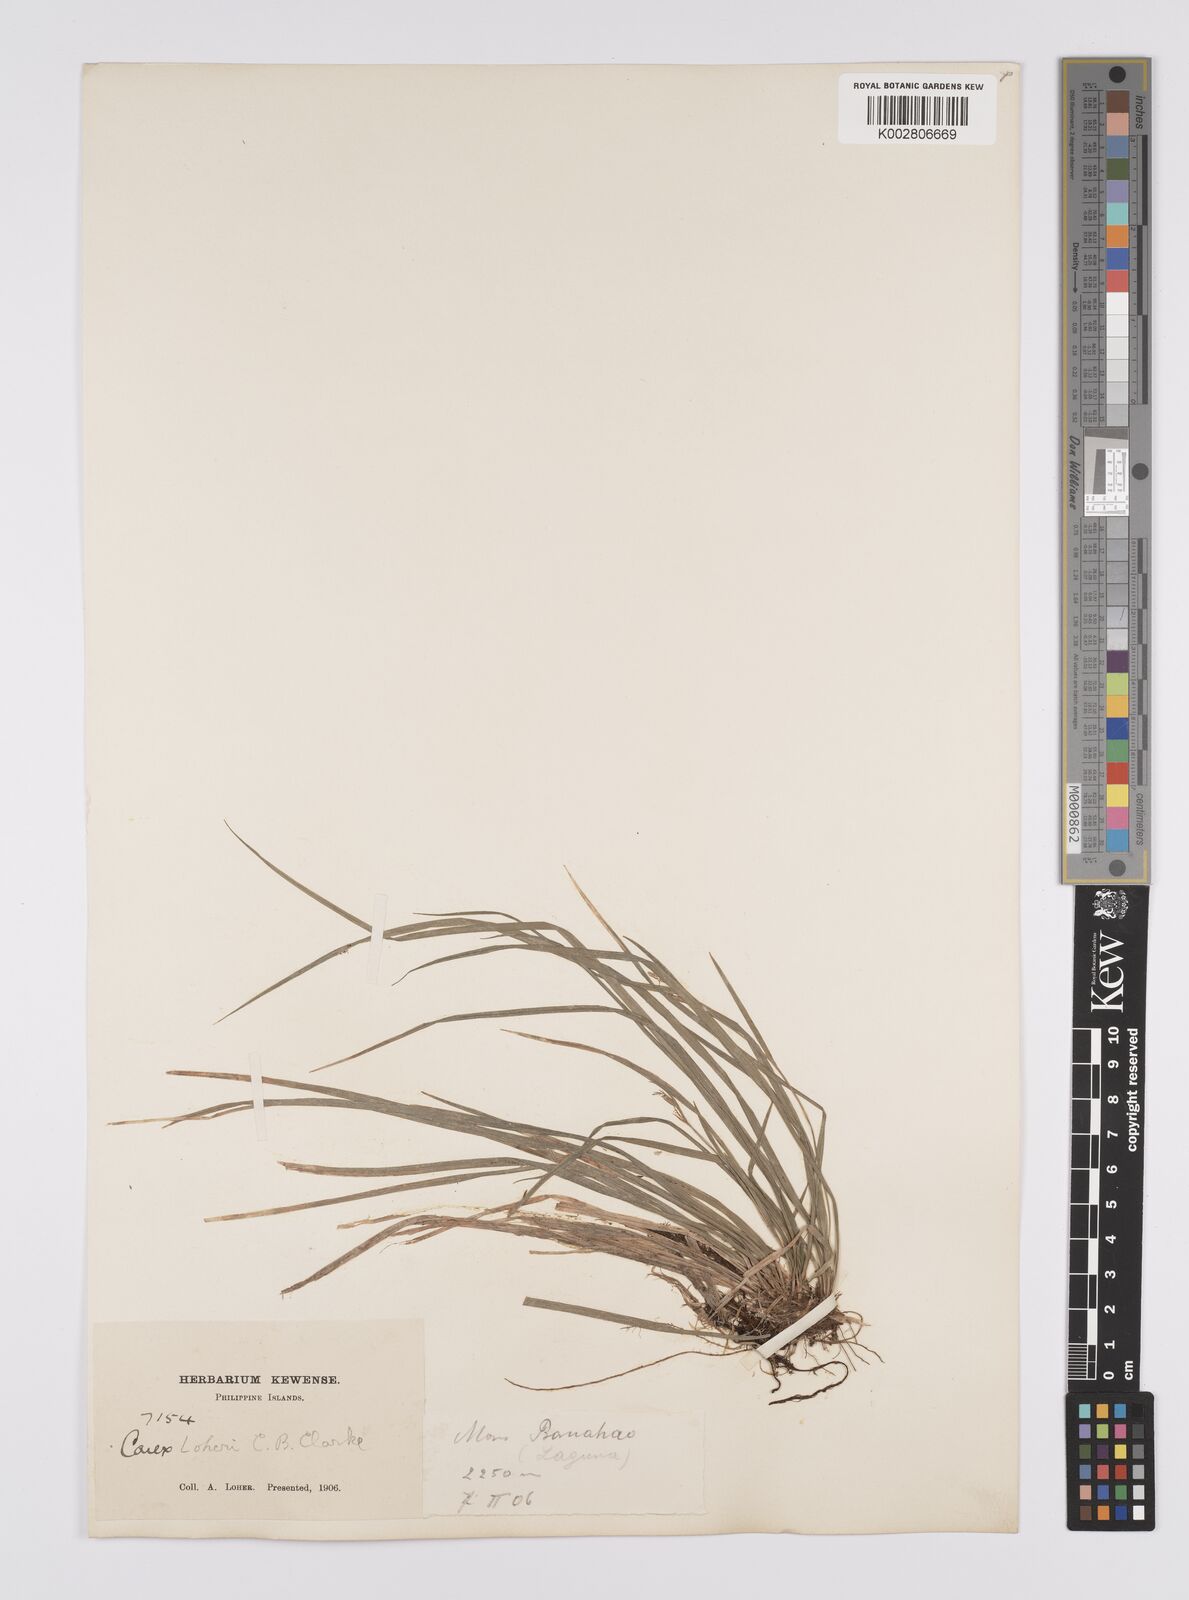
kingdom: Plantae
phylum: Tracheophyta
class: Liliopsida
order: Poales
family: Cyperaceae
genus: Carex
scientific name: Carex oxyphylla
